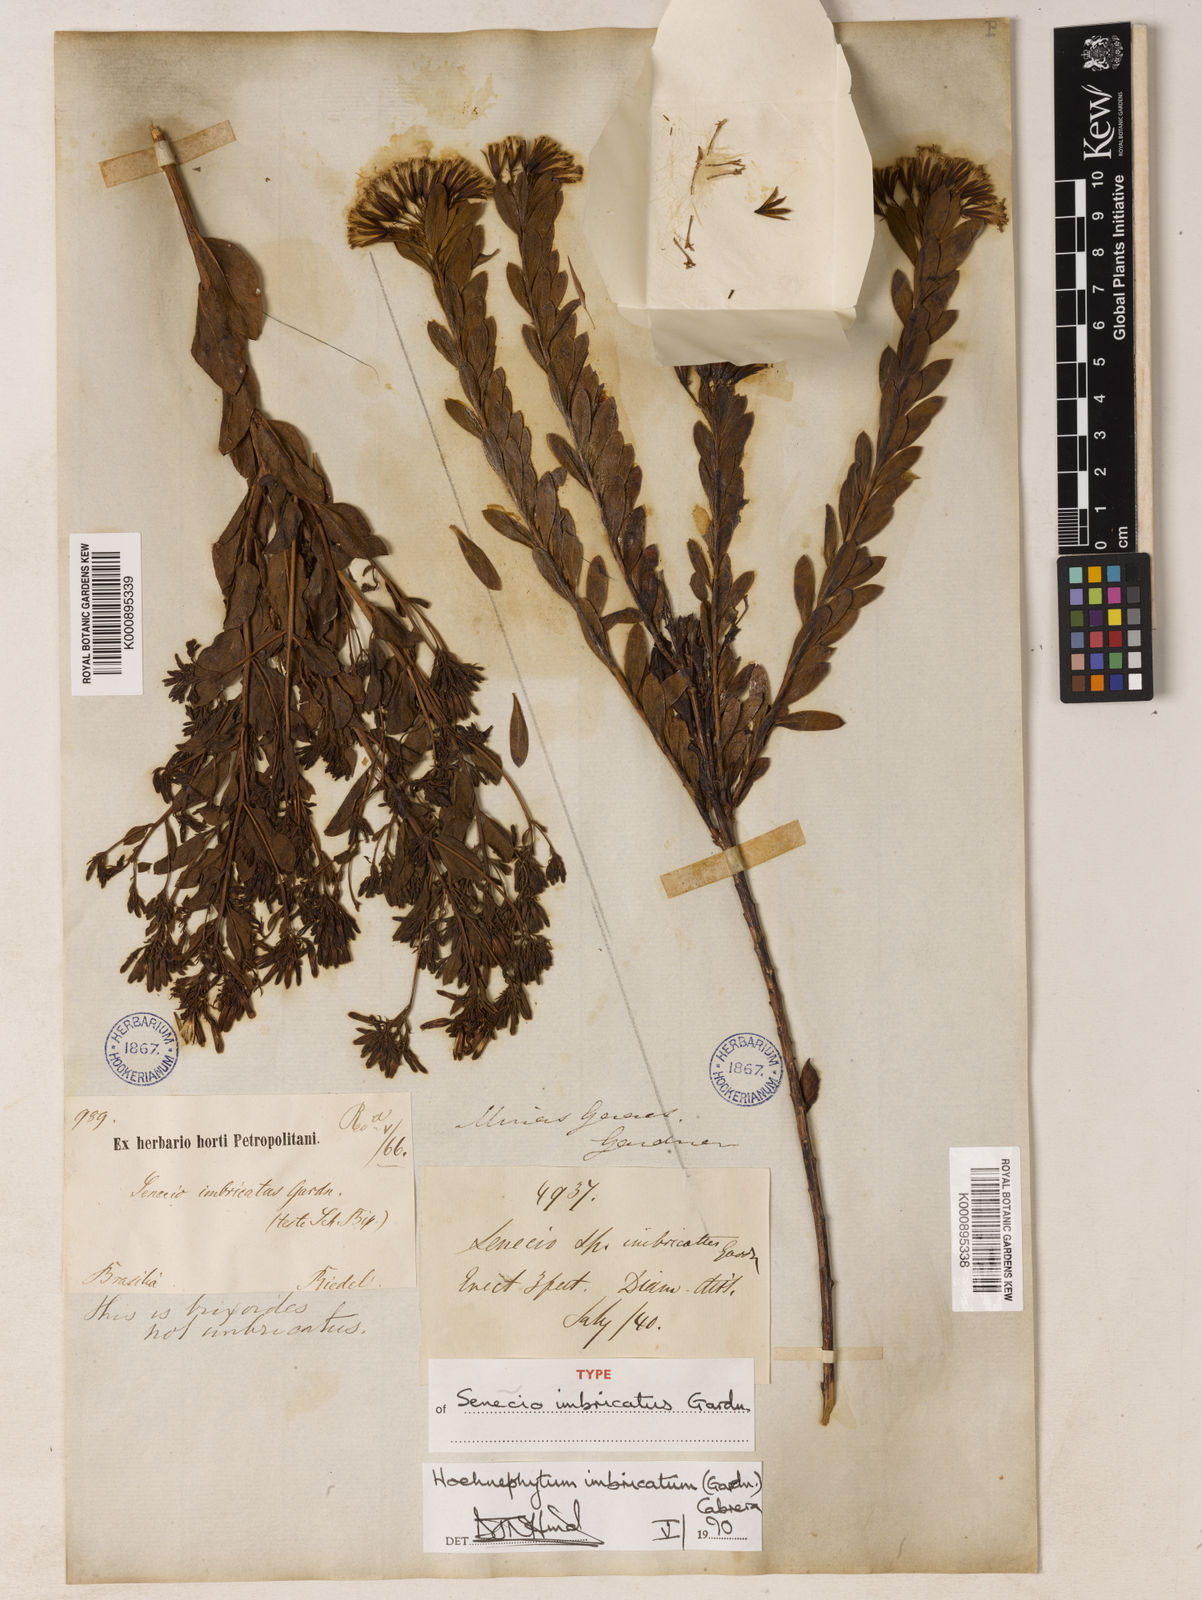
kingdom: Plantae
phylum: Tracheophyta
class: Magnoliopsida
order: Asterales
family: Asteraceae
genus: Hoehnephytum
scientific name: Hoehnephytum imbricatum
